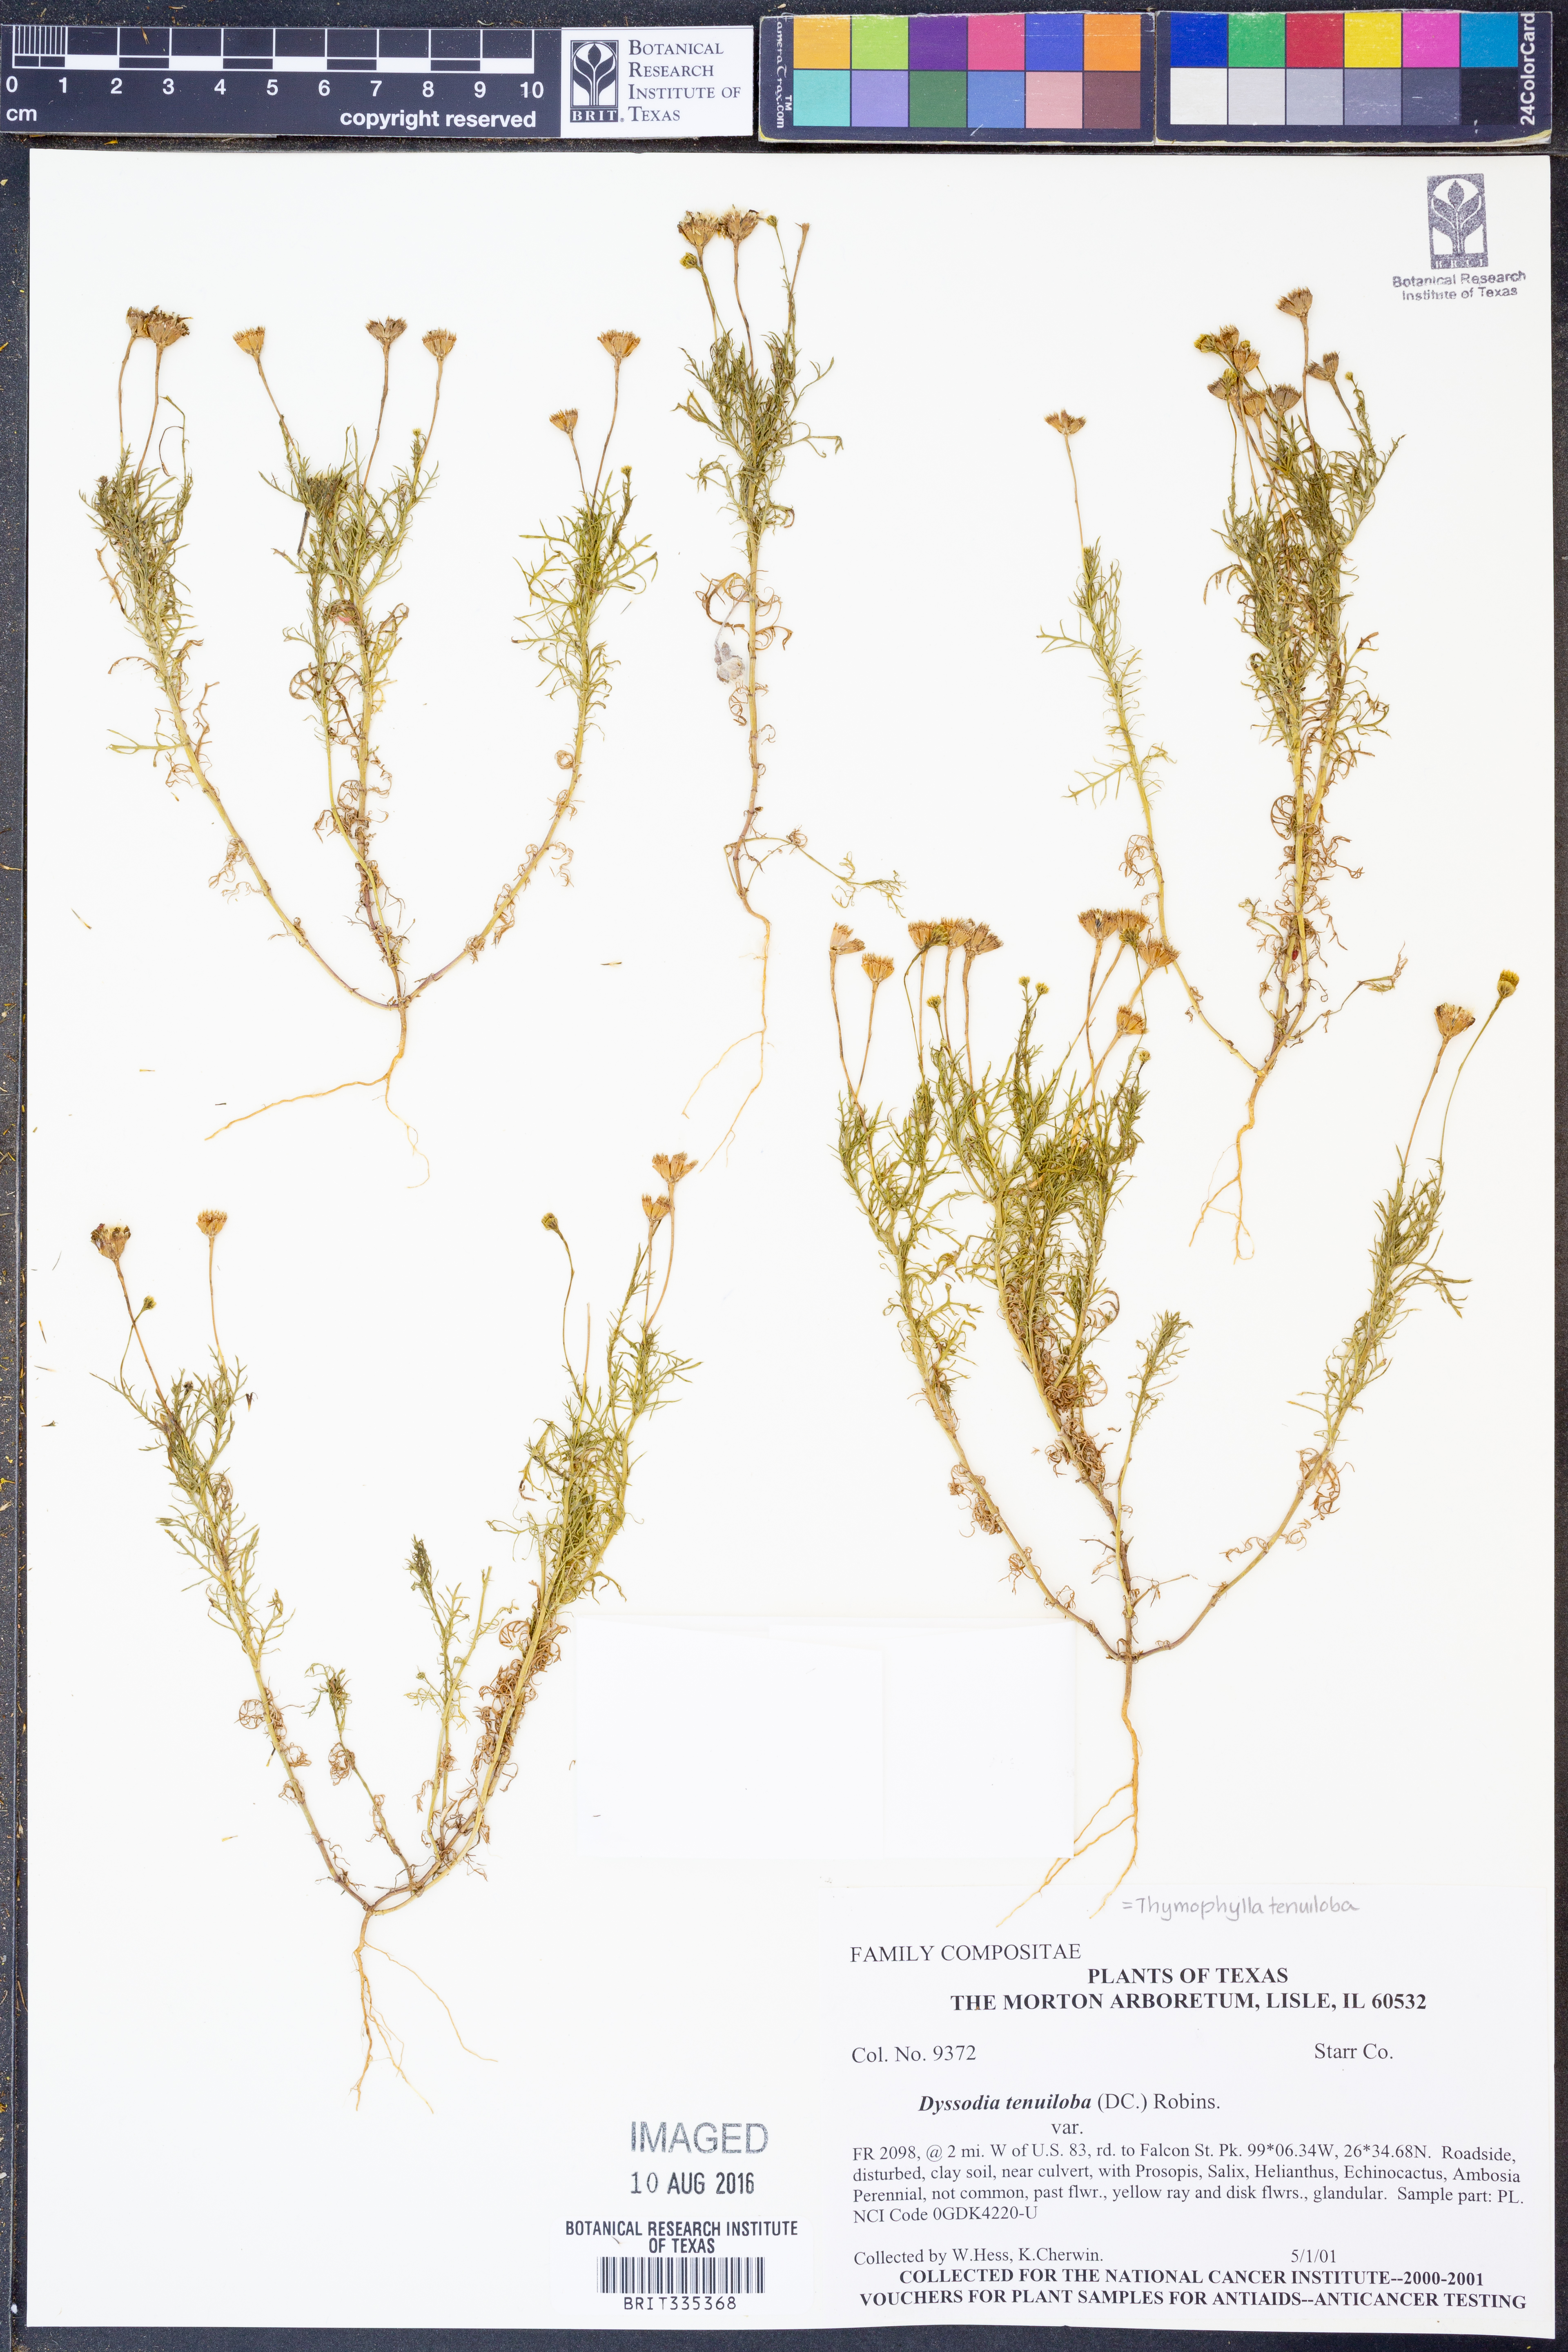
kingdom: Plantae
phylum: Tracheophyta
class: Magnoliopsida
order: Asterales
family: Asteraceae
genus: Thymophylla
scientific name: Thymophylla tenuiloba
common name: Dahlberg's daisy
